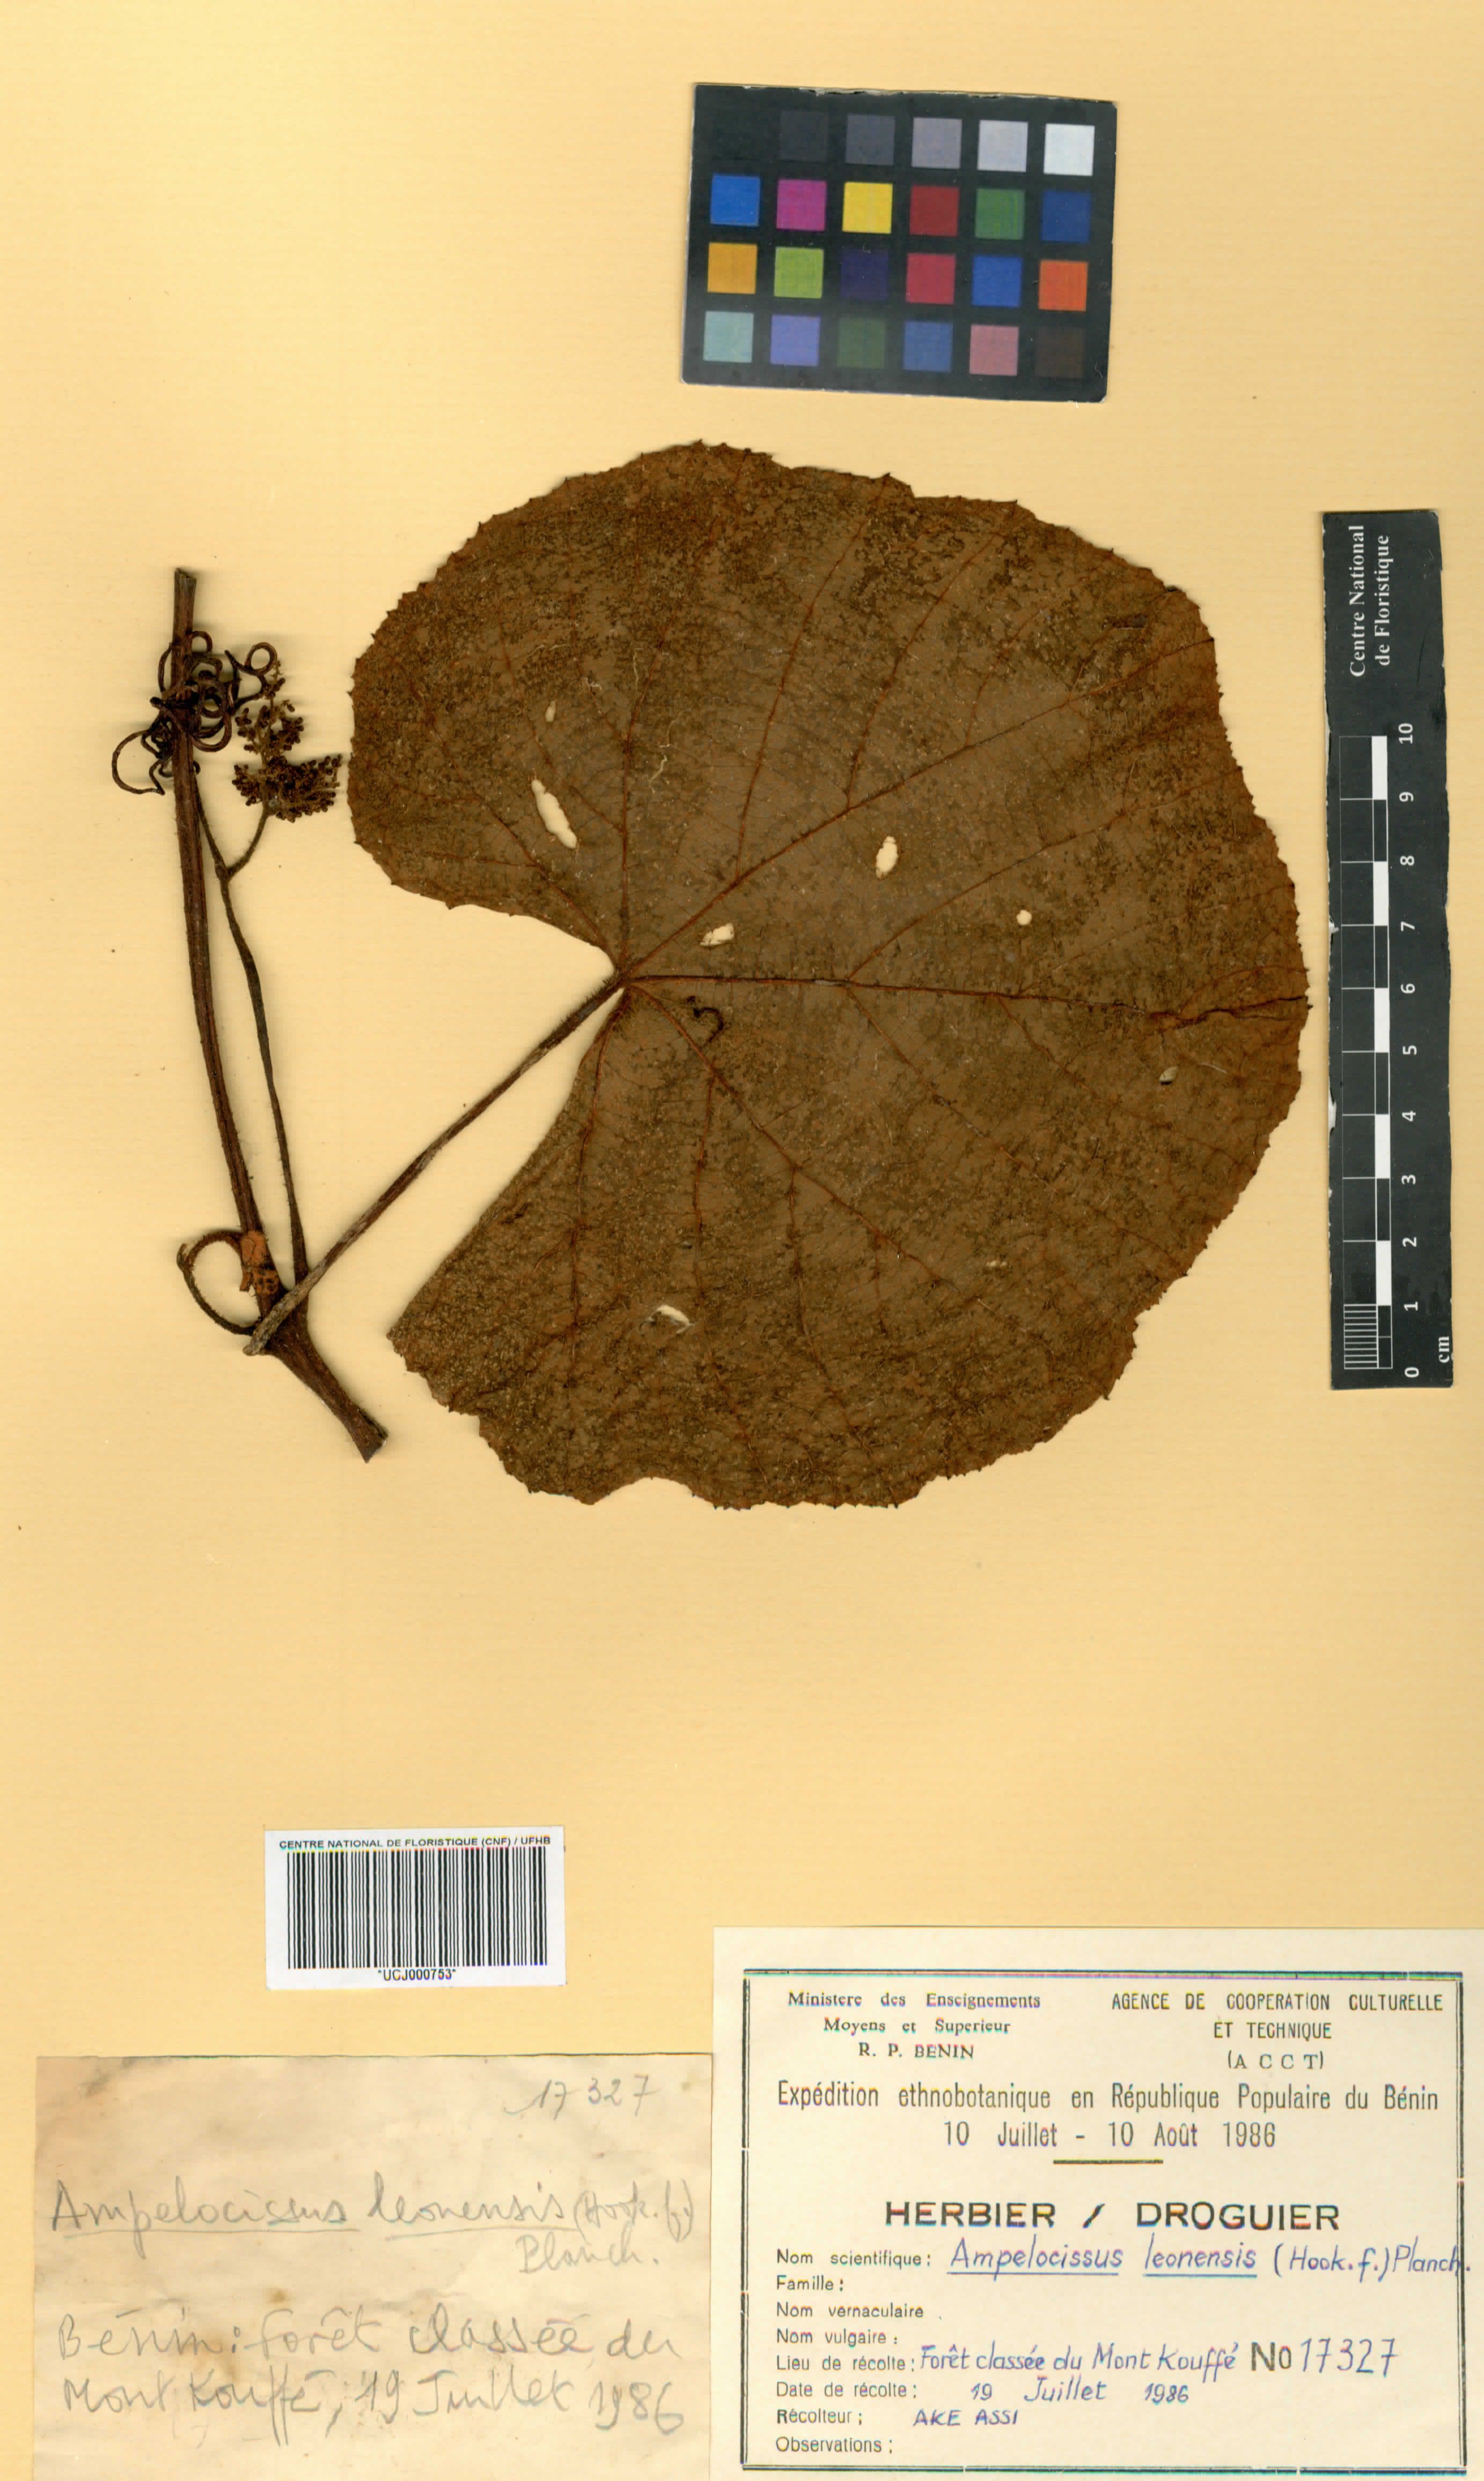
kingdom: Plantae
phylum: Tracheophyta
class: Magnoliopsida
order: Vitales
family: Vitaceae
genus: Ampelocissus
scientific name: Ampelocissus leonensis
